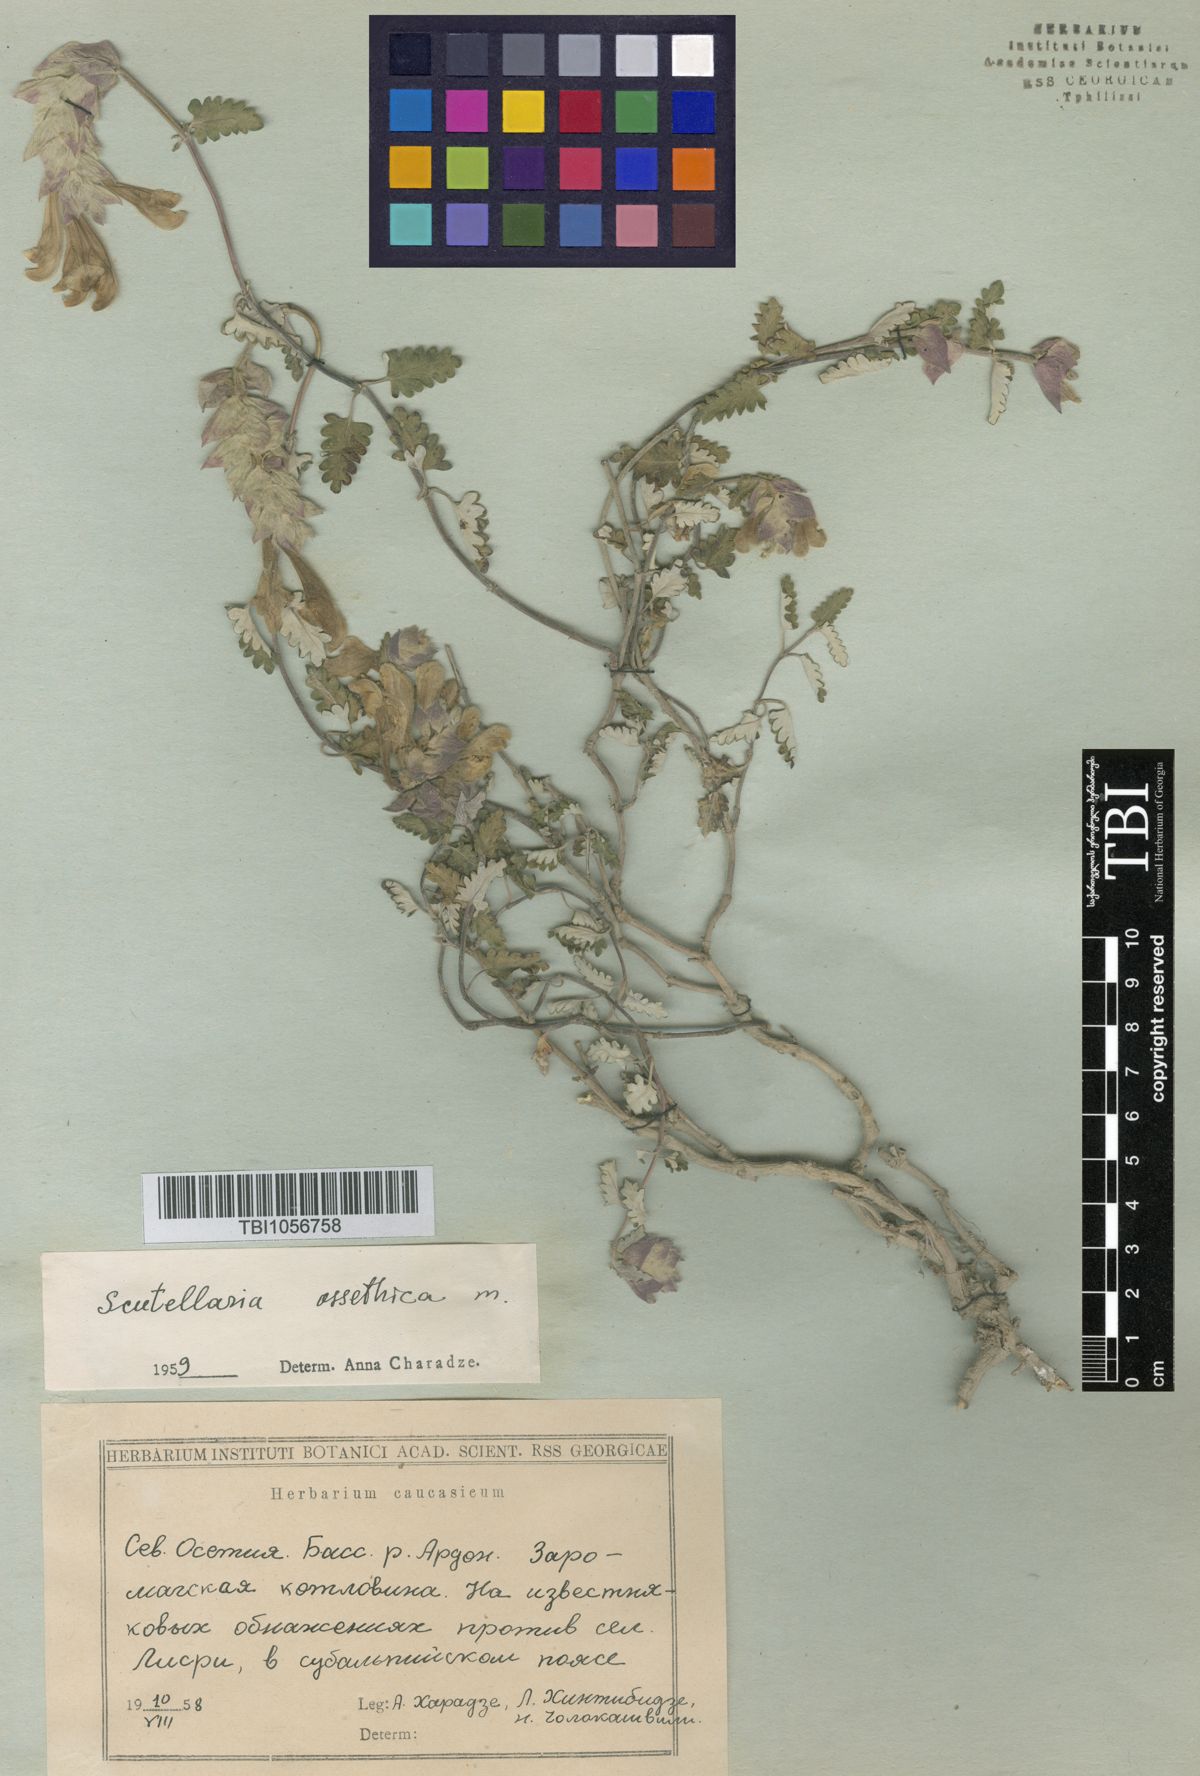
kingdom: Plantae
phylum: Tracheophyta
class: Magnoliopsida
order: Lamiales
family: Lamiaceae
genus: Scutellaria
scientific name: Scutellaria ossethica
